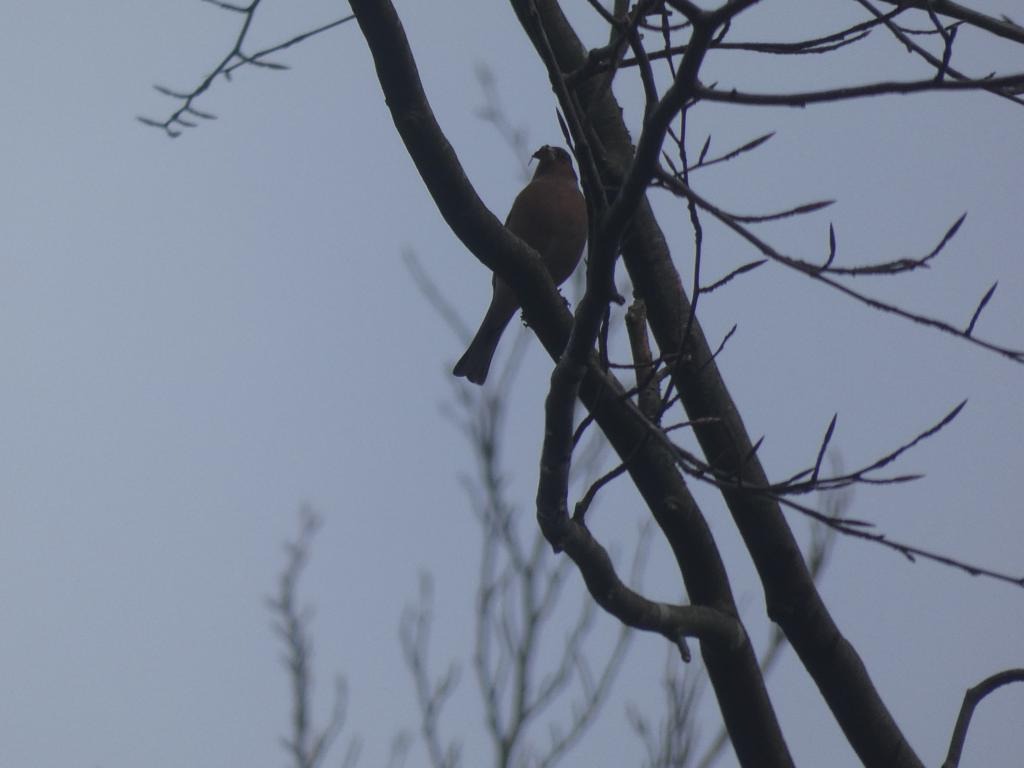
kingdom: Animalia
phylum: Chordata
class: Aves
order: Passeriformes
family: Fringillidae
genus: Fringilla
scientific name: Fringilla coelebs
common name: Bogfinke
